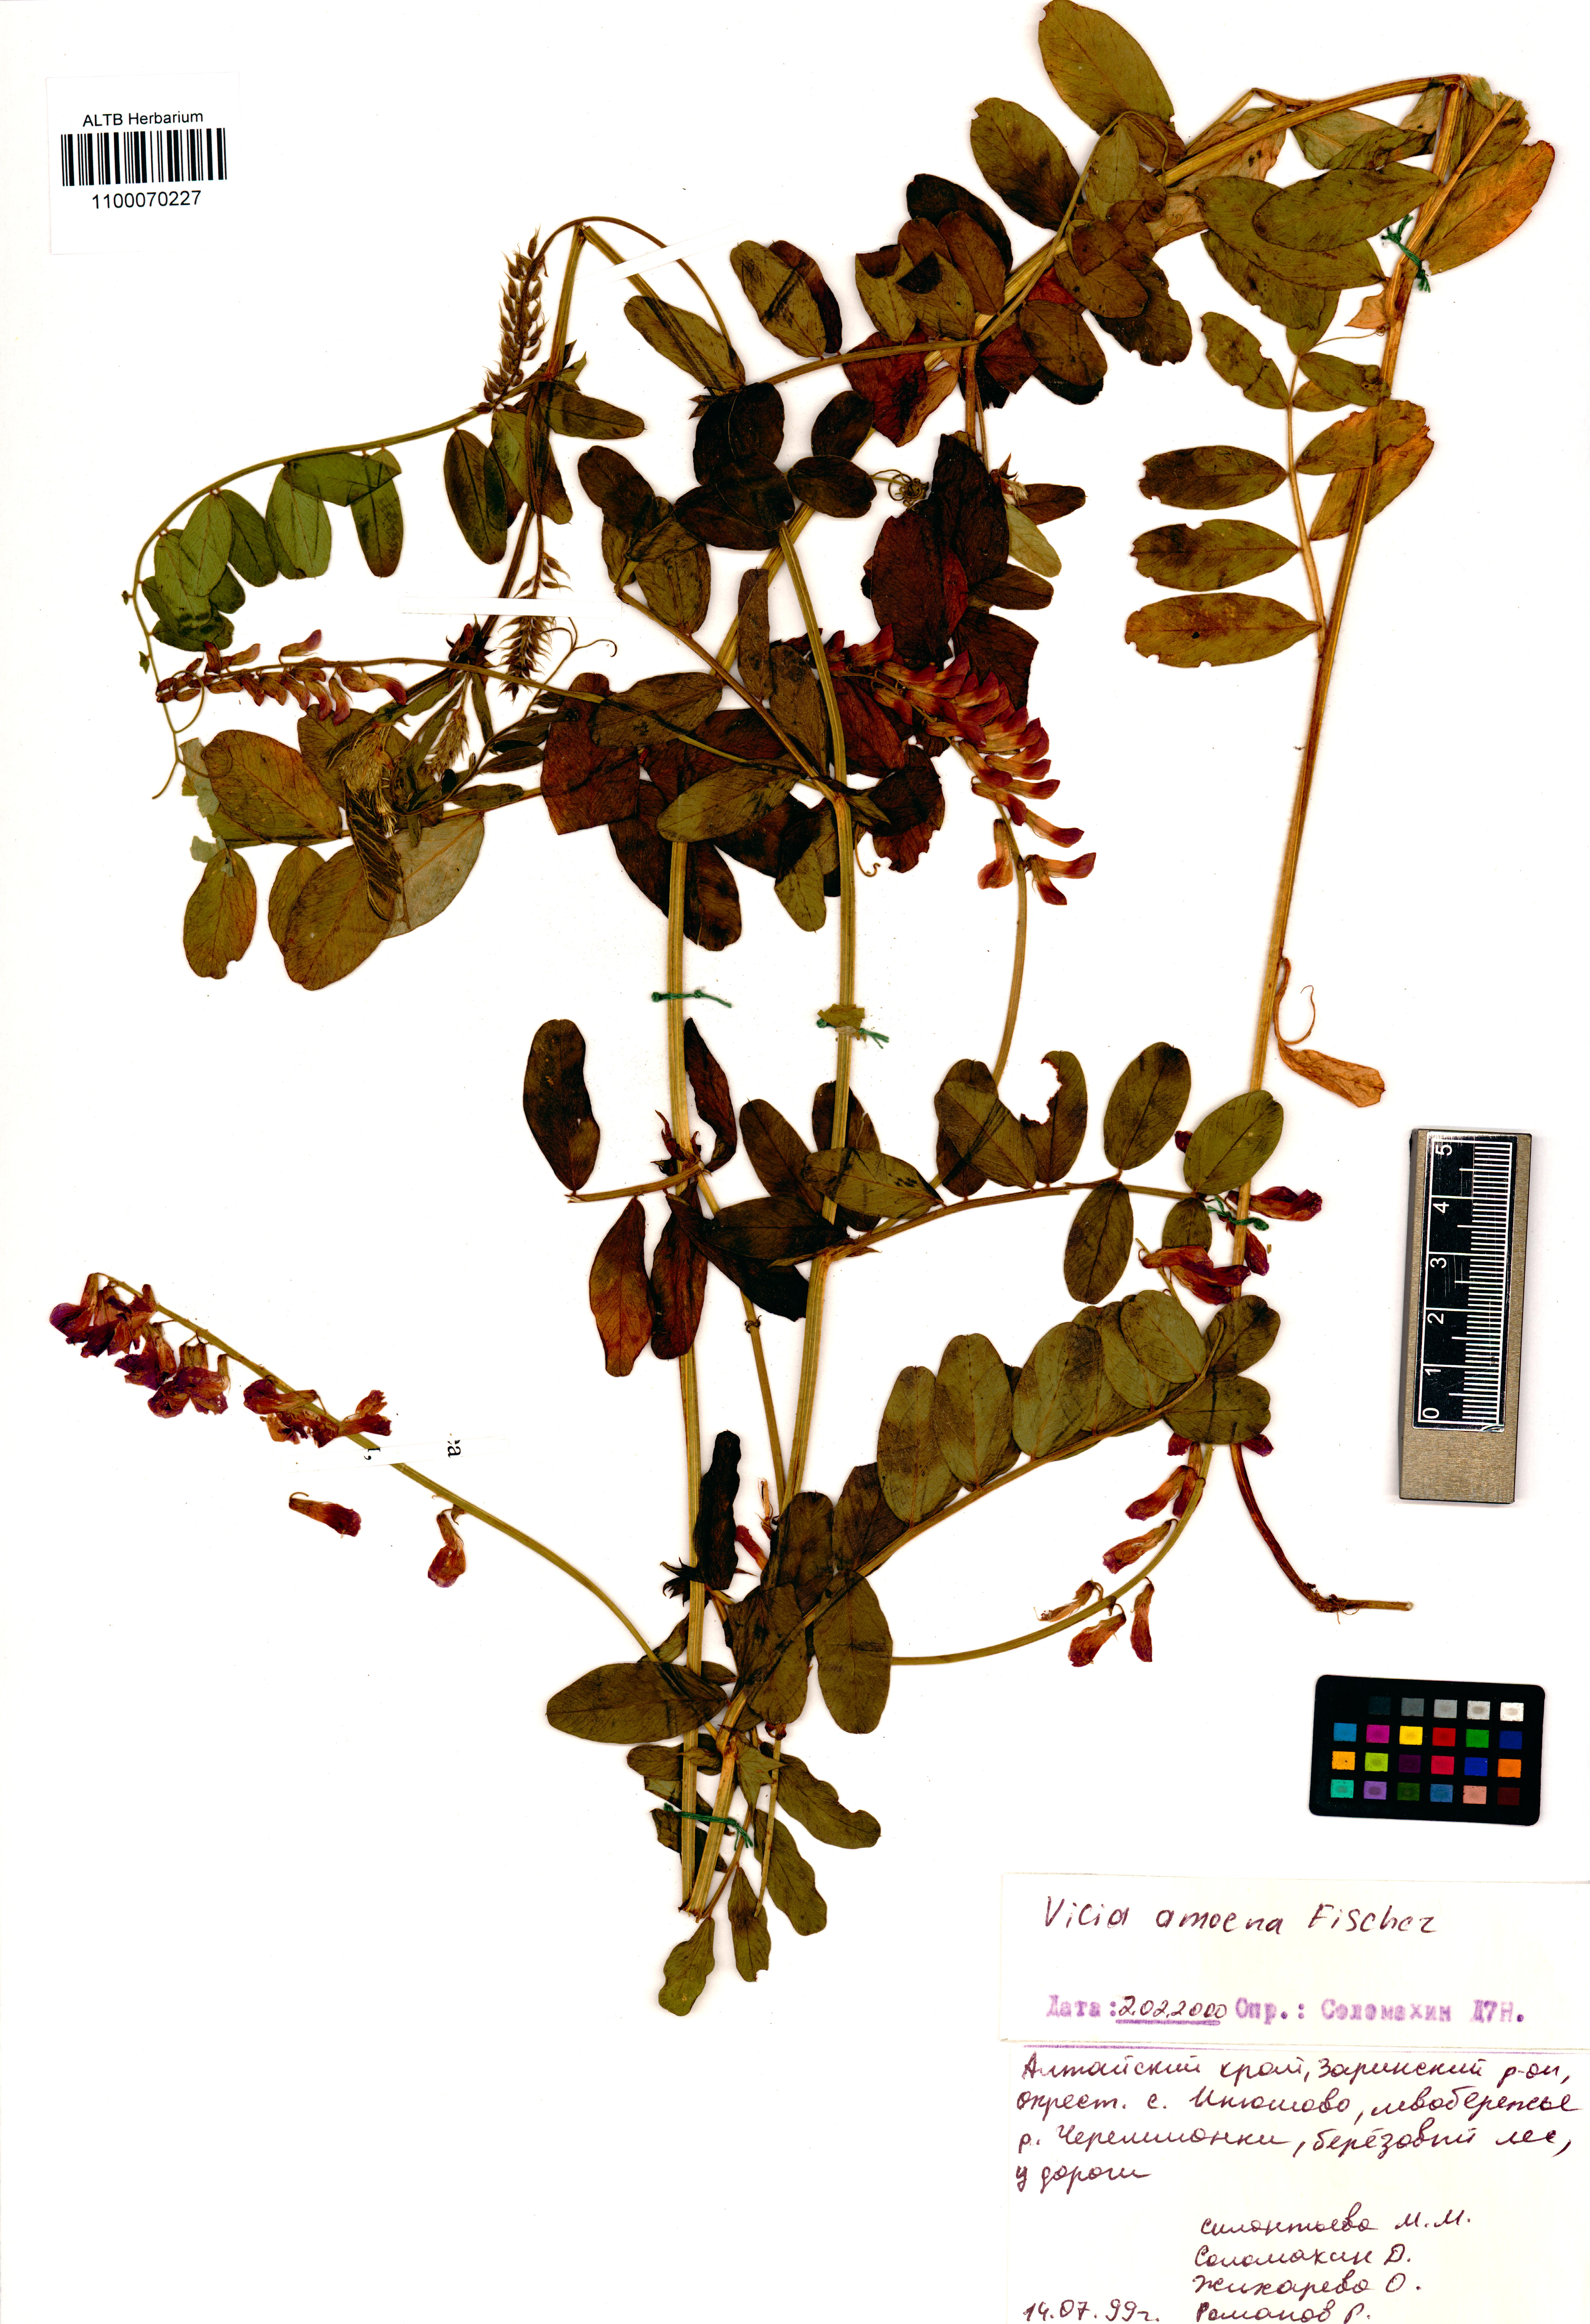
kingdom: Plantae
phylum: Tracheophyta
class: Magnoliopsida
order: Fabales
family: Fabaceae
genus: Vicia
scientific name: Vicia amoena
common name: Cheder ebs
